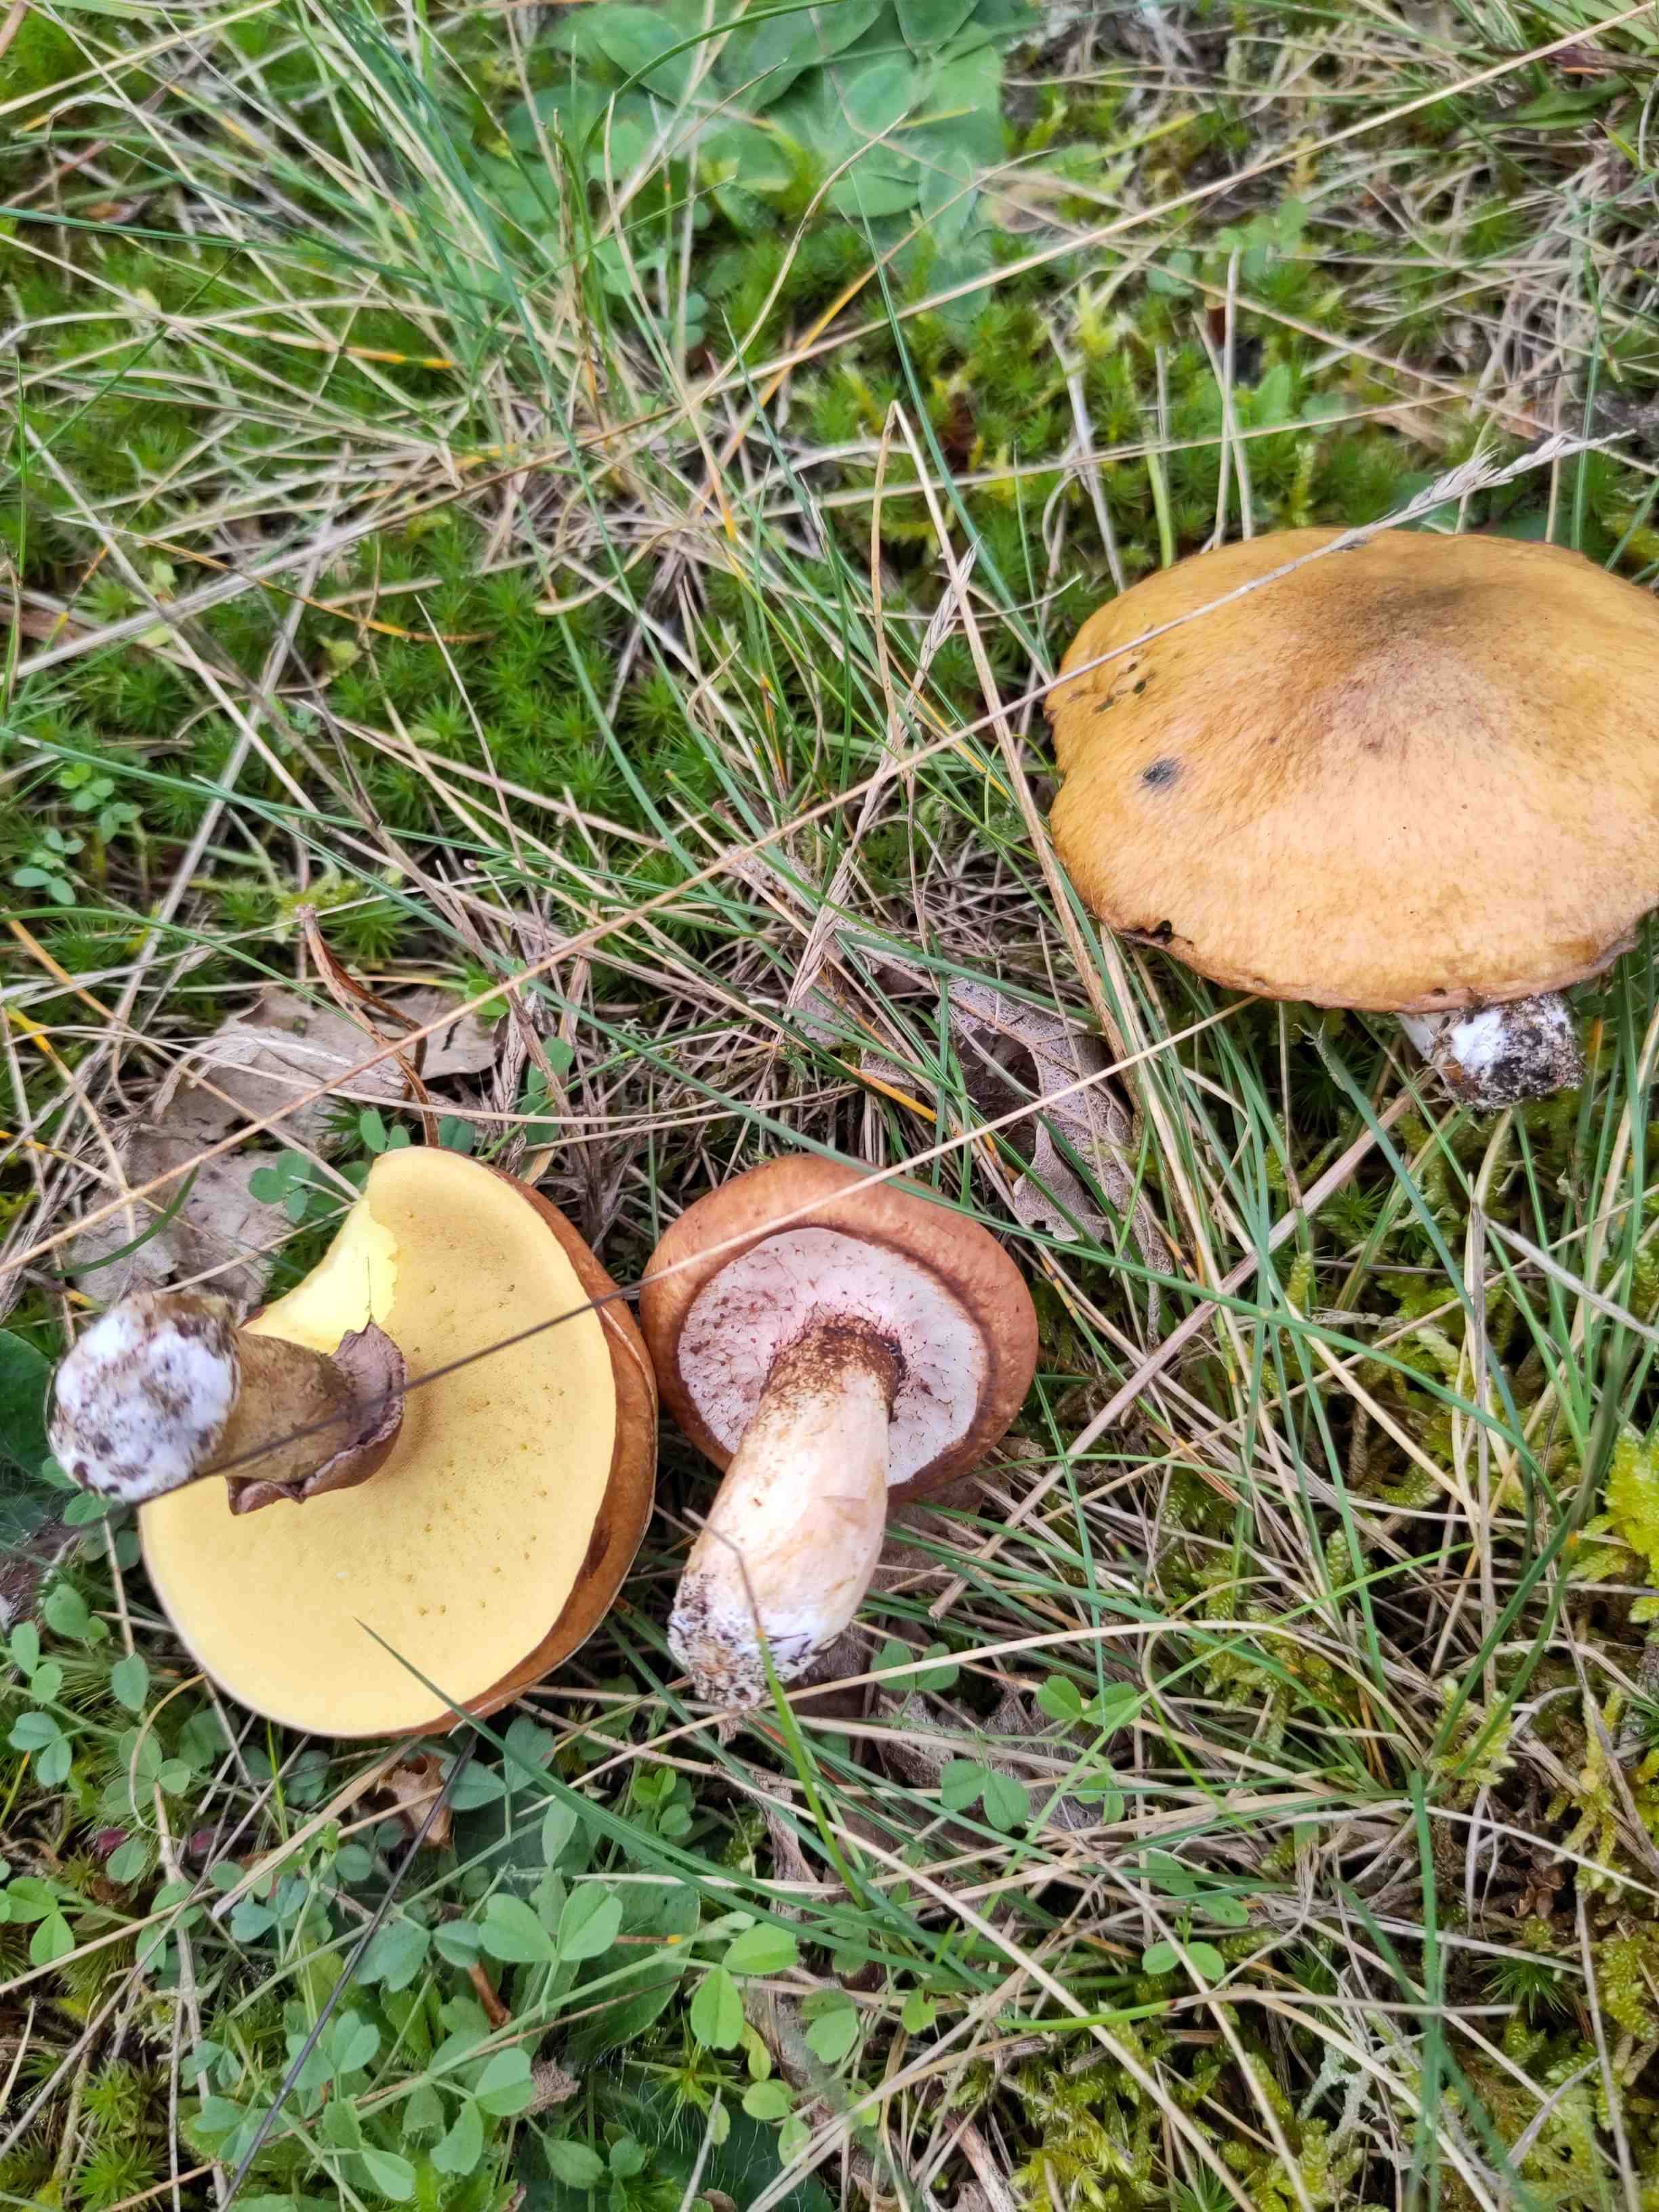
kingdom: Fungi
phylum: Basidiomycota
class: Agaricomycetes
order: Boletales
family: Suillaceae
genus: Suillus
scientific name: Suillus luteus
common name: brungul slimrørhat
